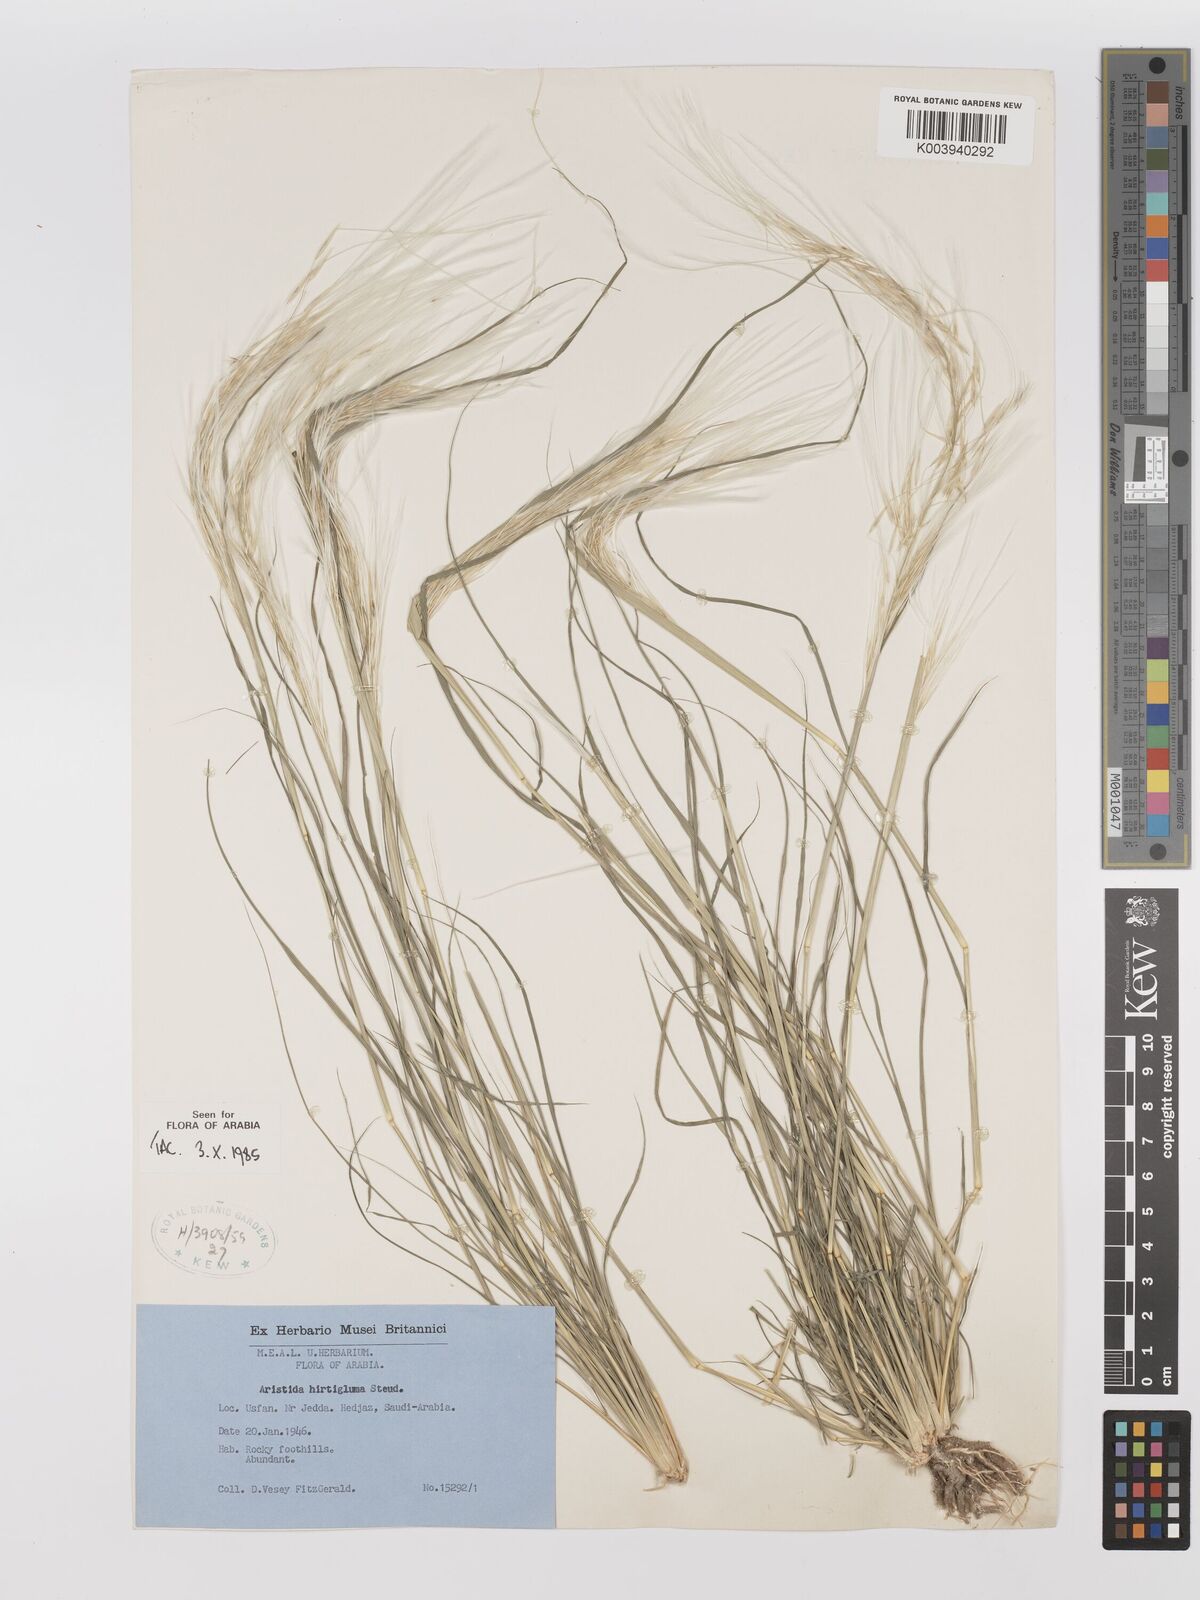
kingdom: Plantae
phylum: Tracheophyta
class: Liliopsida
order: Poales
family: Poaceae
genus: Stipagrostis
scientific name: Stipagrostis hirtigluma
